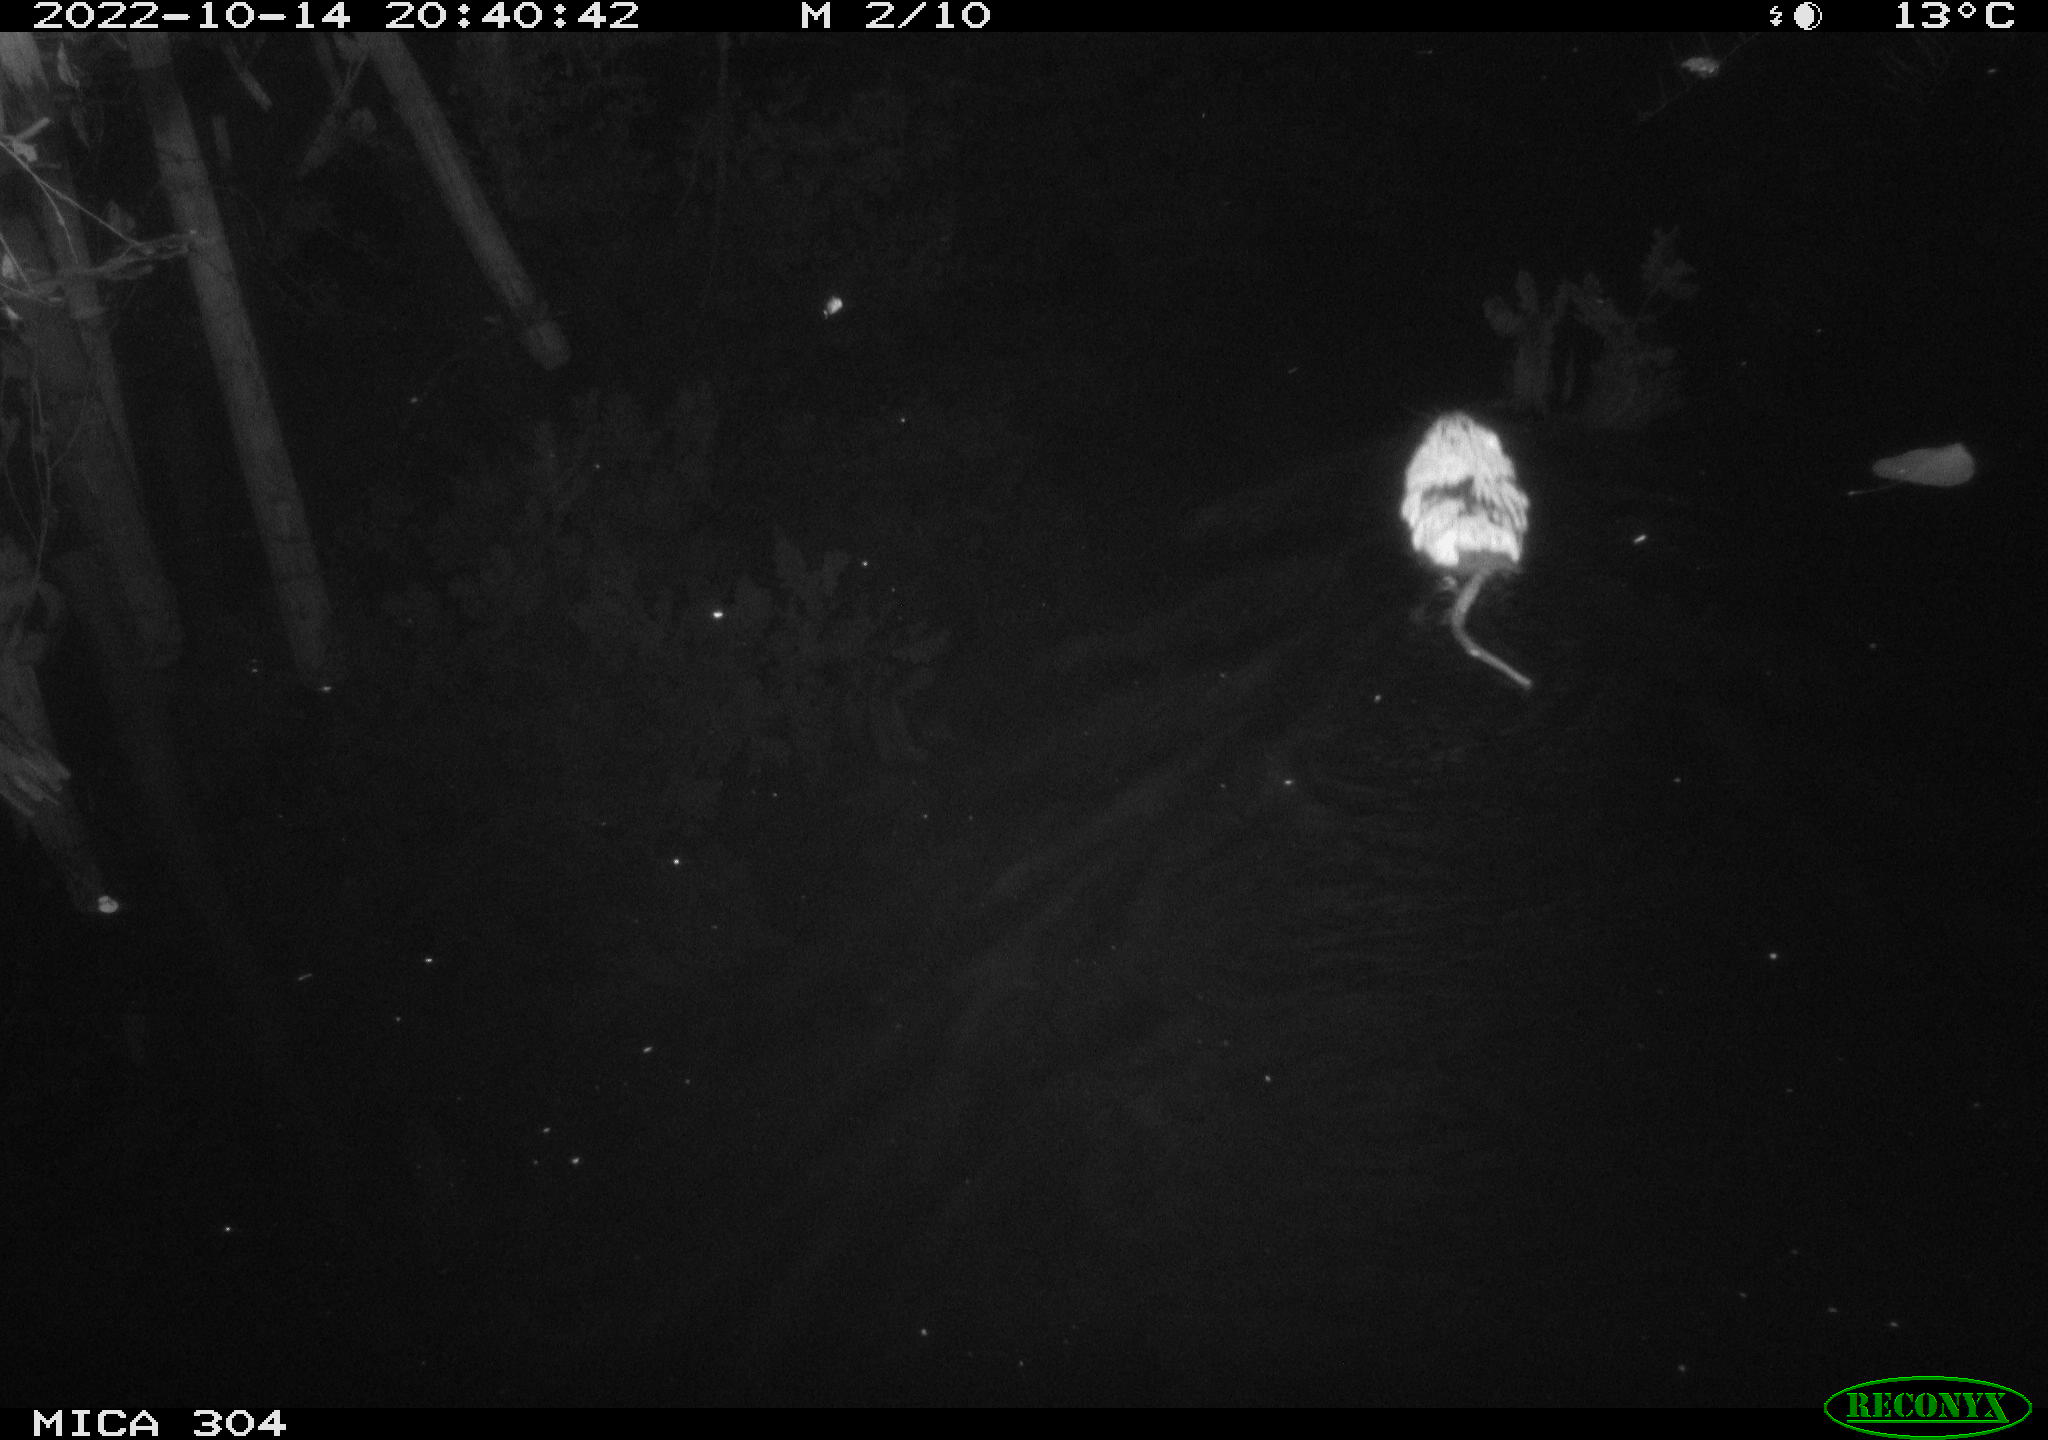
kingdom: Animalia
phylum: Chordata
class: Mammalia
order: Rodentia
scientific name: Rodentia
